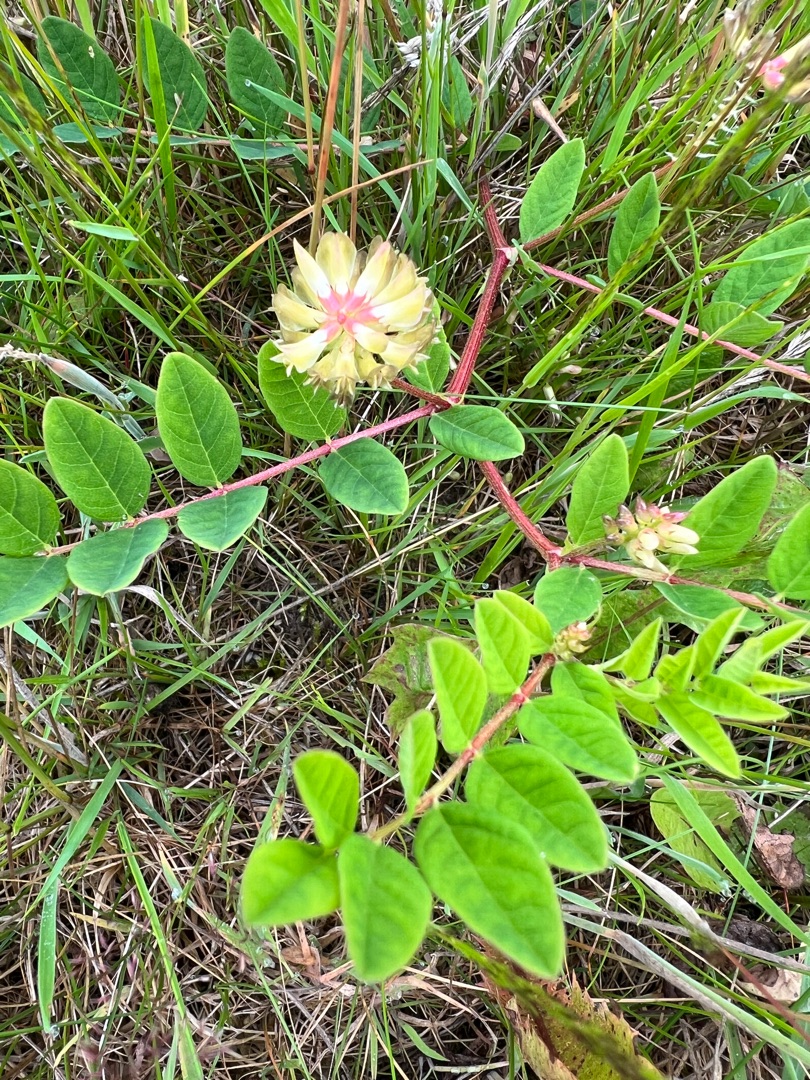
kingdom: Plantae
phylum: Tracheophyta
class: Magnoliopsida
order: Fabales
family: Fabaceae
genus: Astragalus
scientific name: Astragalus glycyphyllos
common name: Sød astragel
